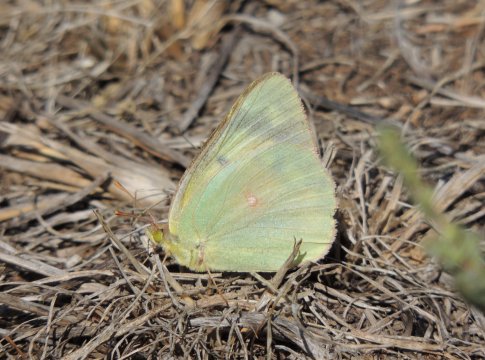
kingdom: Animalia
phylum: Arthropoda
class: Insecta
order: Lepidoptera
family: Pieridae
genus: Colias
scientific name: Colias eurytheme
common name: Orange Sulphur
